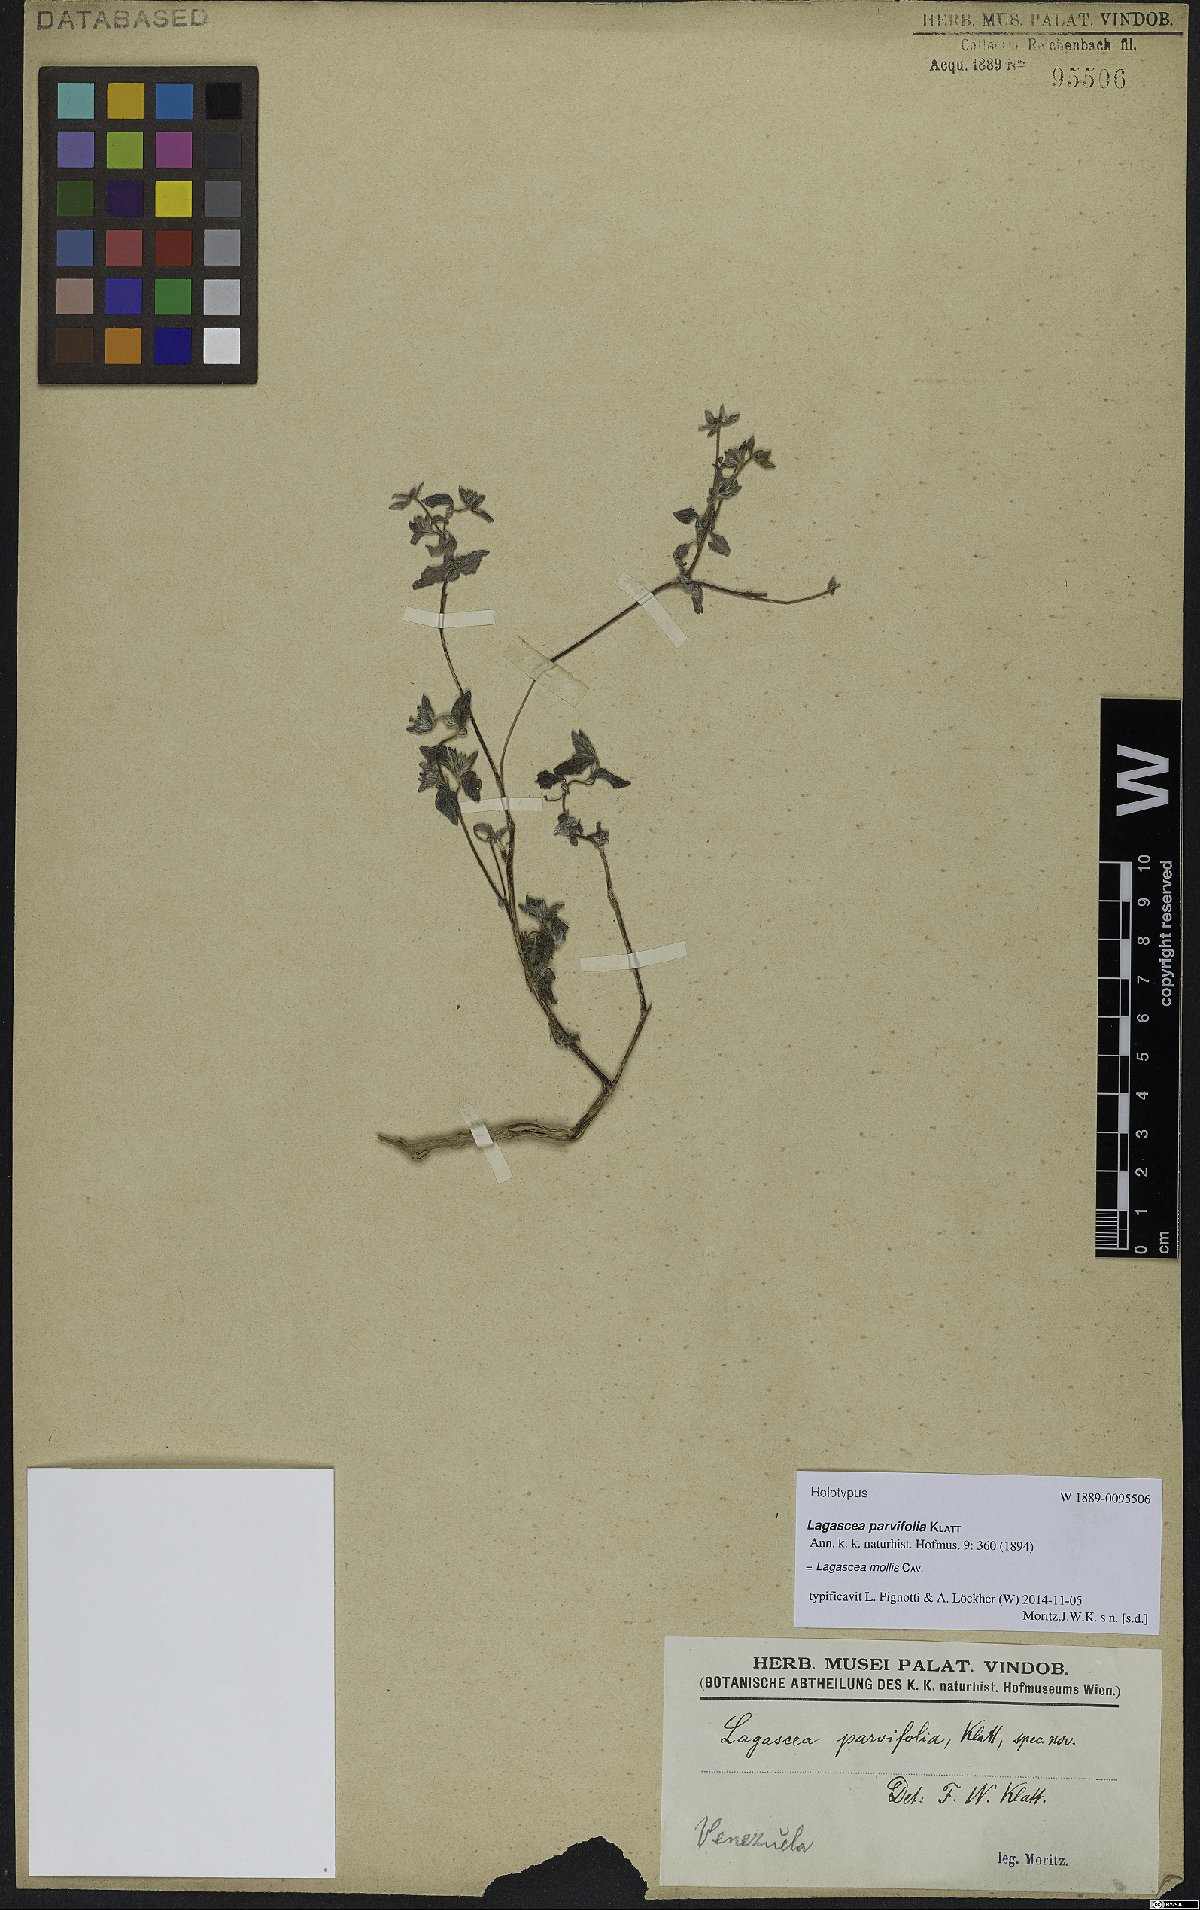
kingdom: Plantae
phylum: Tracheophyta
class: Magnoliopsida
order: Asterales
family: Asteraceae
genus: Lagascea
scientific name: Lagascea mollis
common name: Silkleaf
